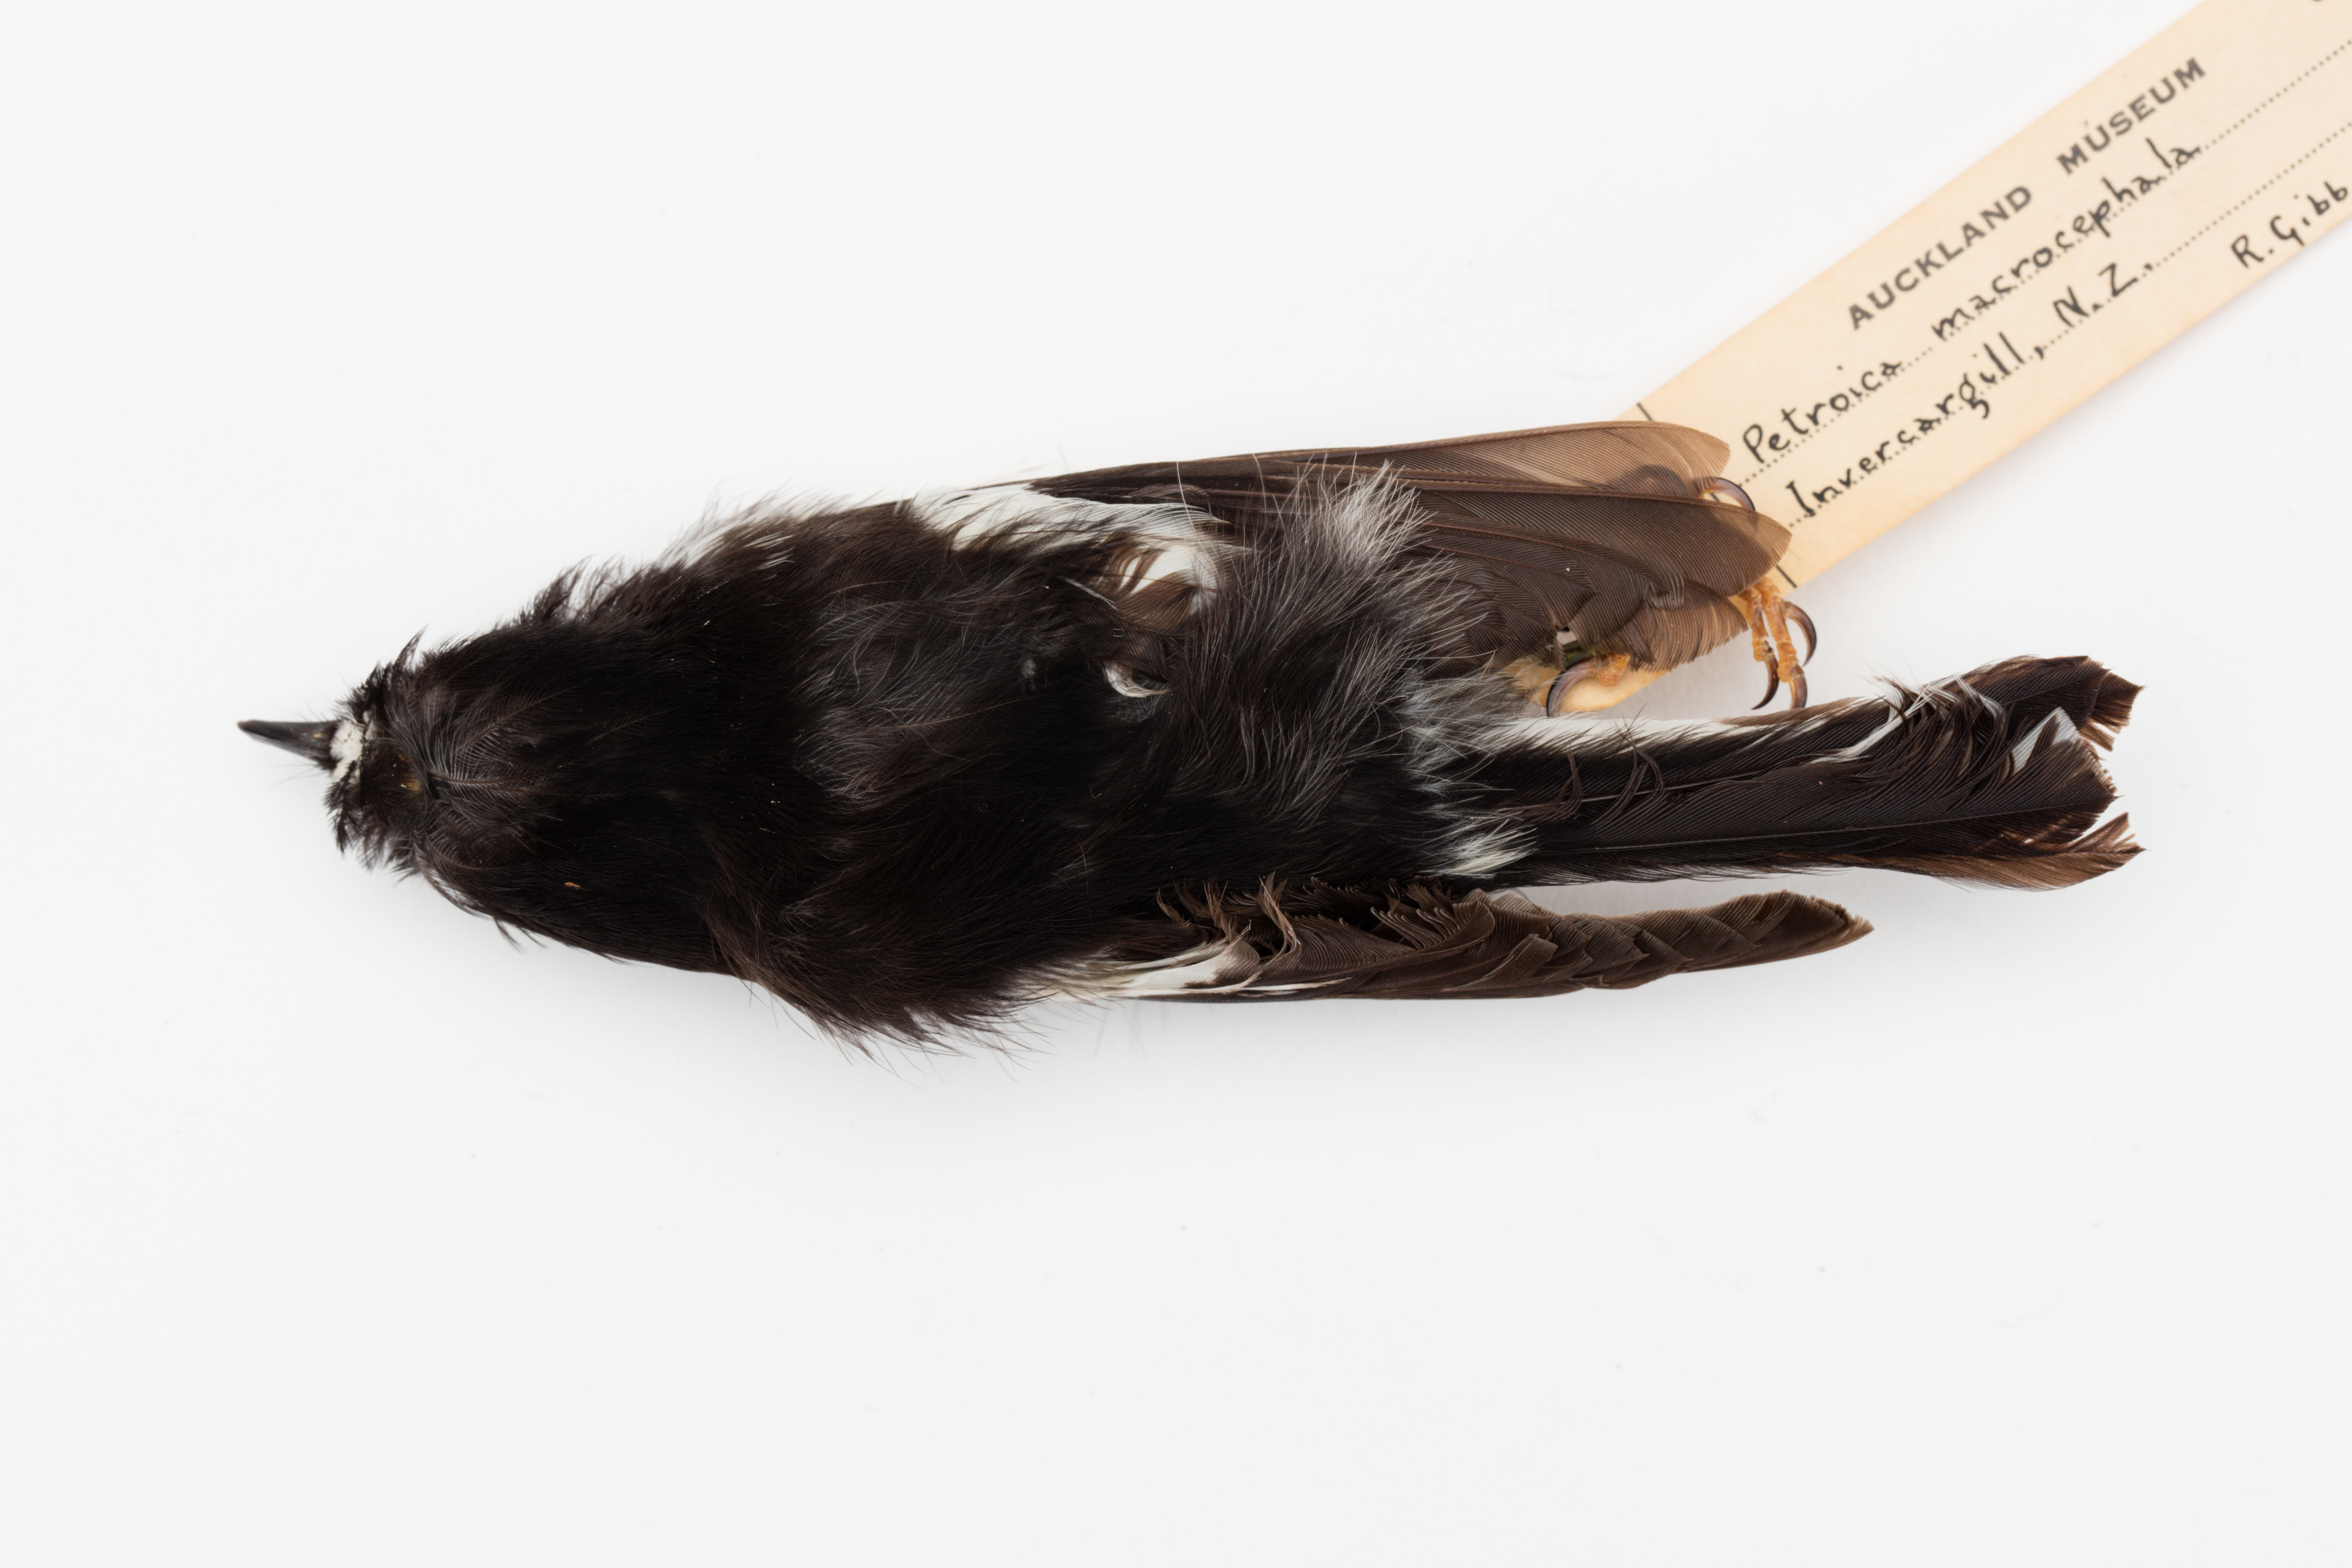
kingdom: Animalia
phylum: Chordata
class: Aves
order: Passeriformes
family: Petroicidae
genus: Petroica
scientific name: Petroica macrocephala
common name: Tomtit
